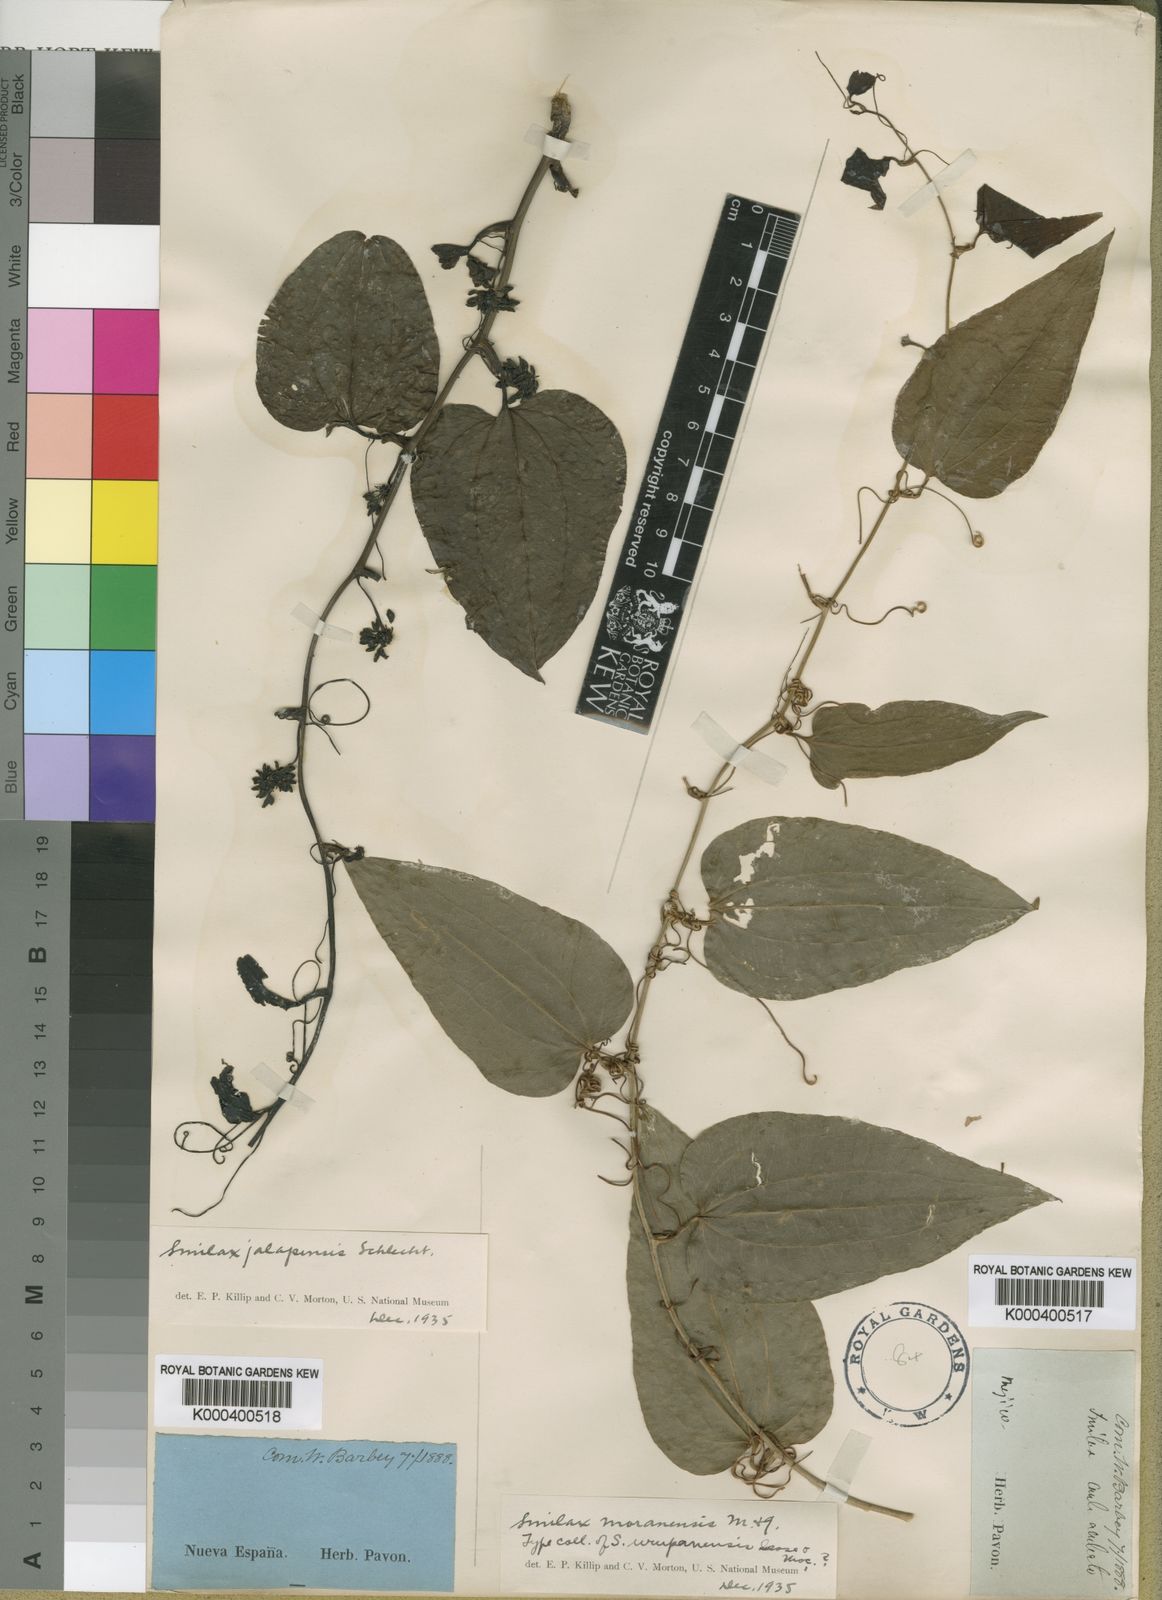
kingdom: Plantae
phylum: Tracheophyta
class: Liliopsida
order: Liliales
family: Smilacaceae
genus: Smilax
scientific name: Smilax moranensis
